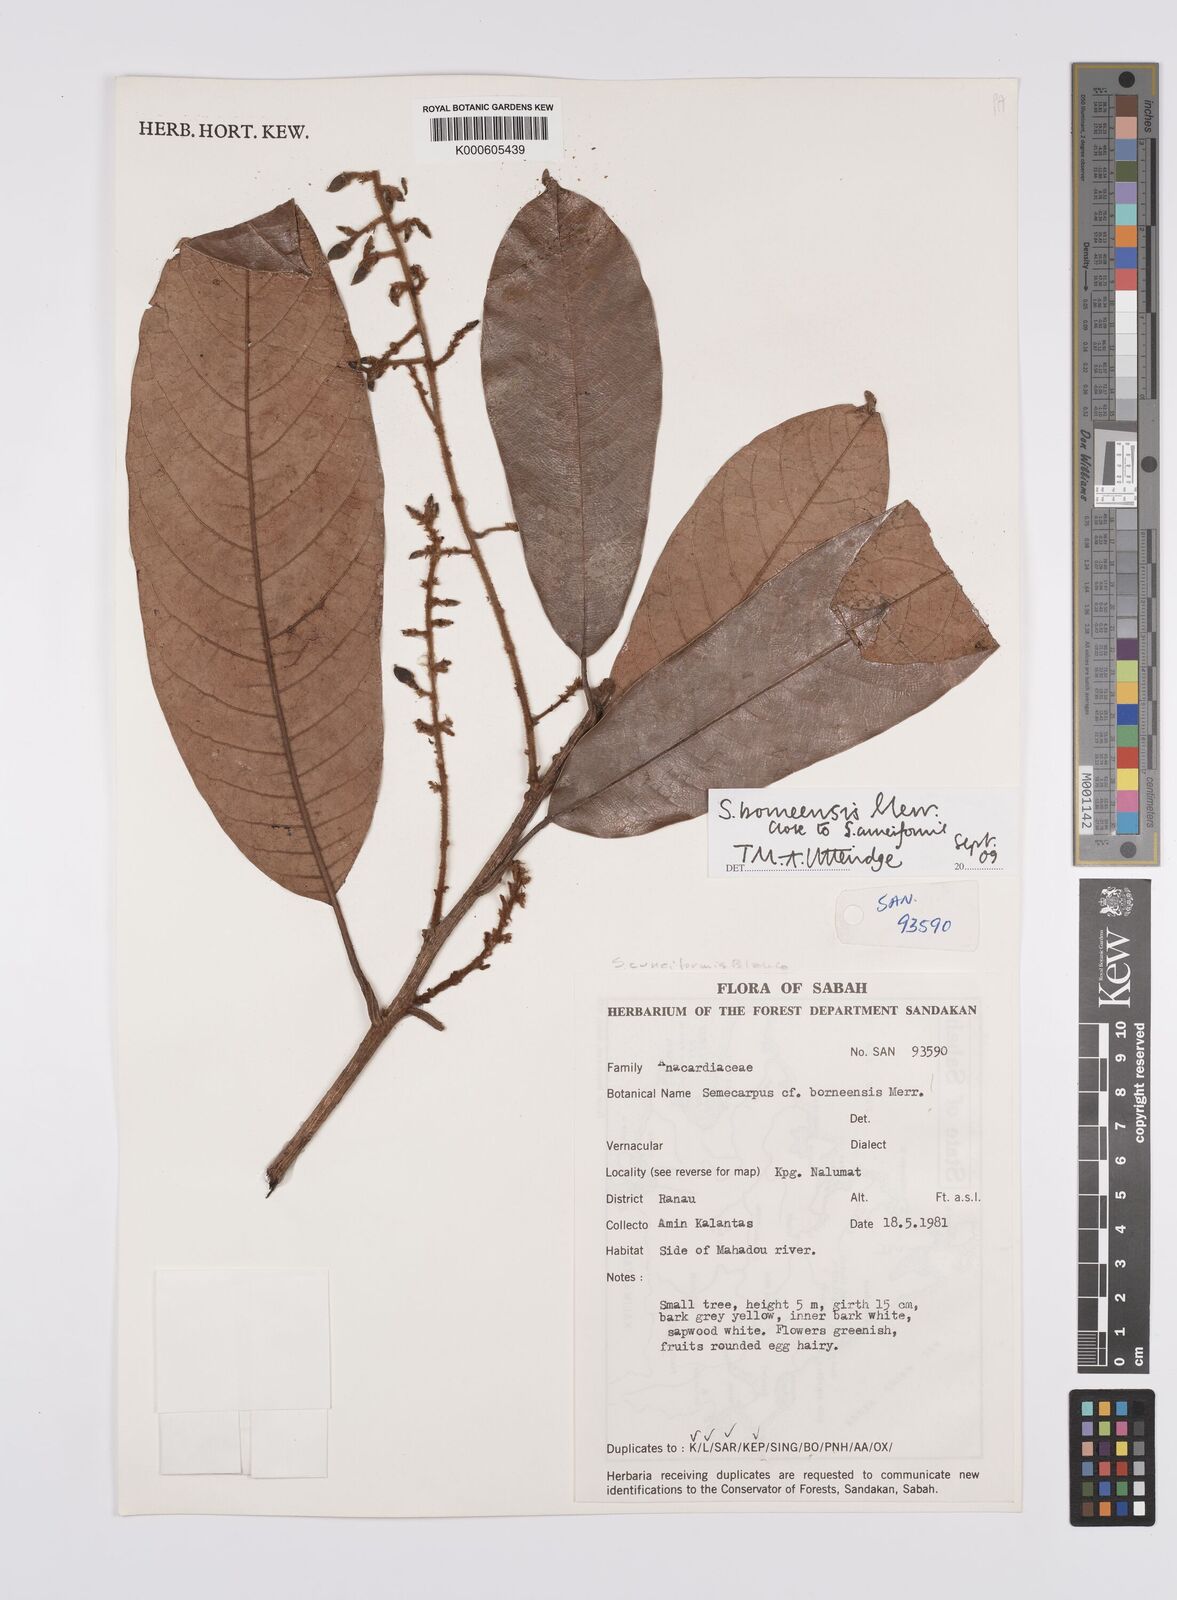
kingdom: Plantae
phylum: Tracheophyta
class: Magnoliopsida
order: Sapindales
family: Anacardiaceae
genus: Semecarpus
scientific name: Semecarpus borneensis
